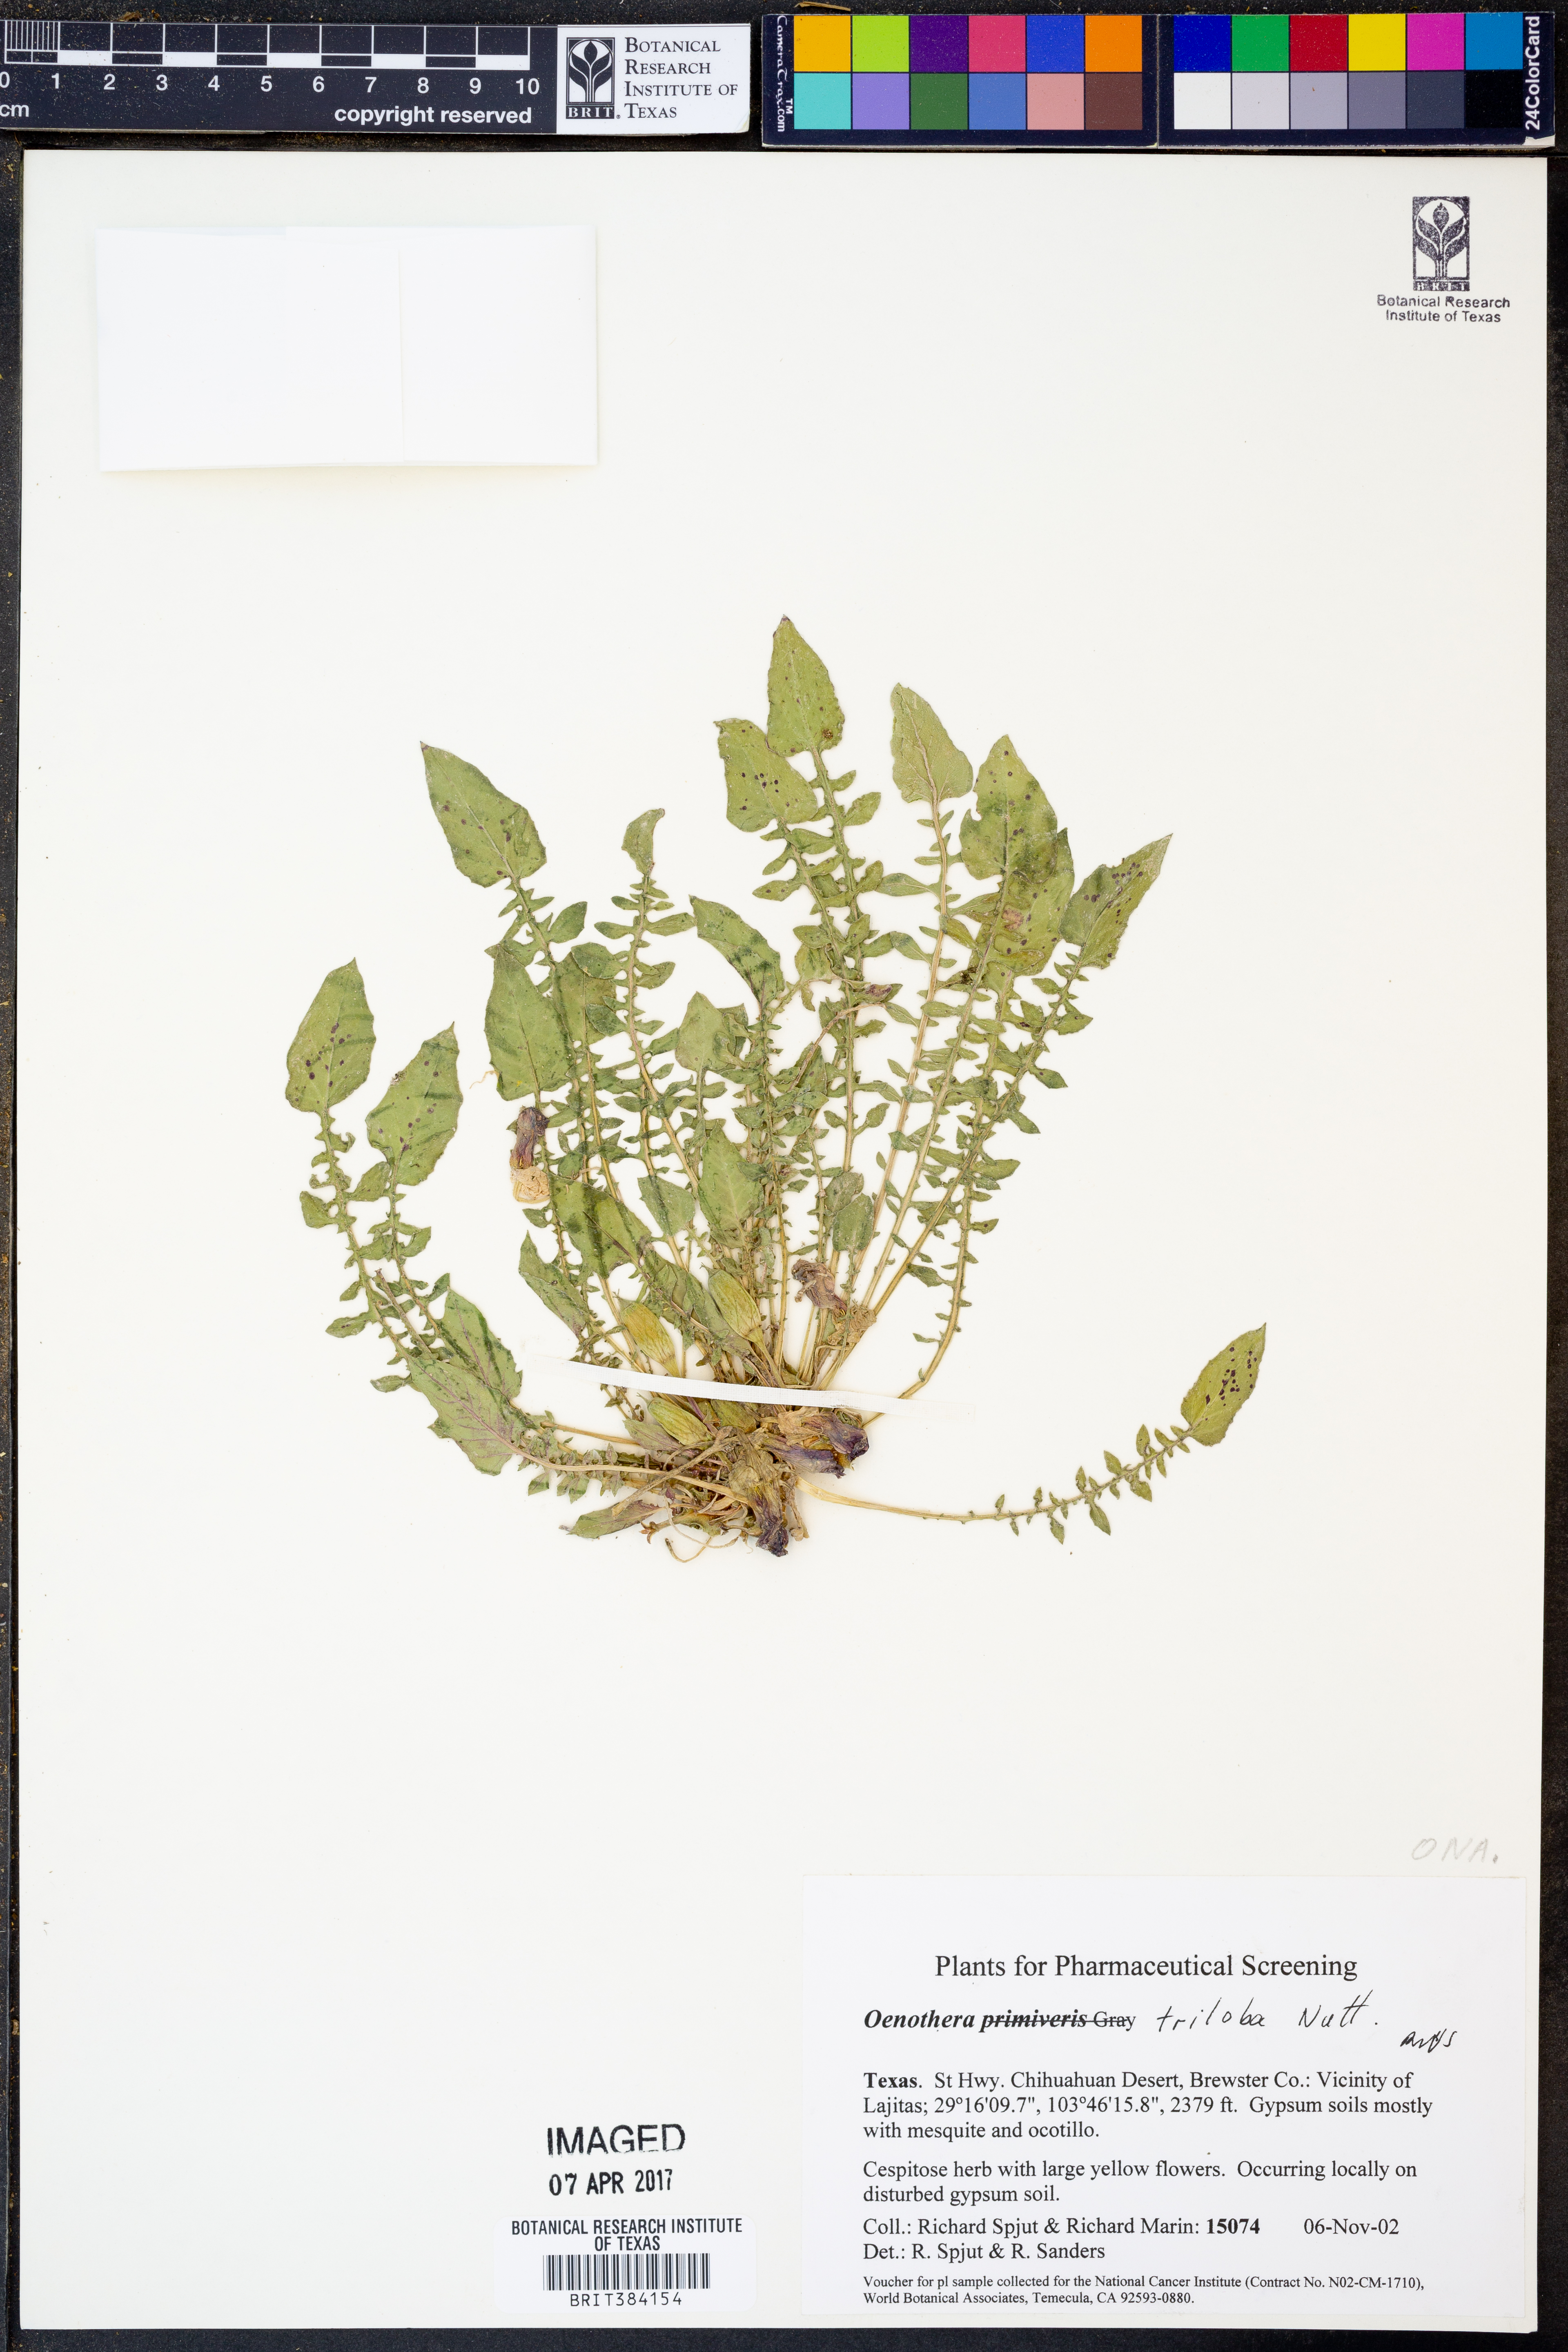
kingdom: Plantae
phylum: Tracheophyta
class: Magnoliopsida
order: Myrtales
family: Onagraceae
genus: Oenothera
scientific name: Oenothera triloba
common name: Sessile evening-primrose
